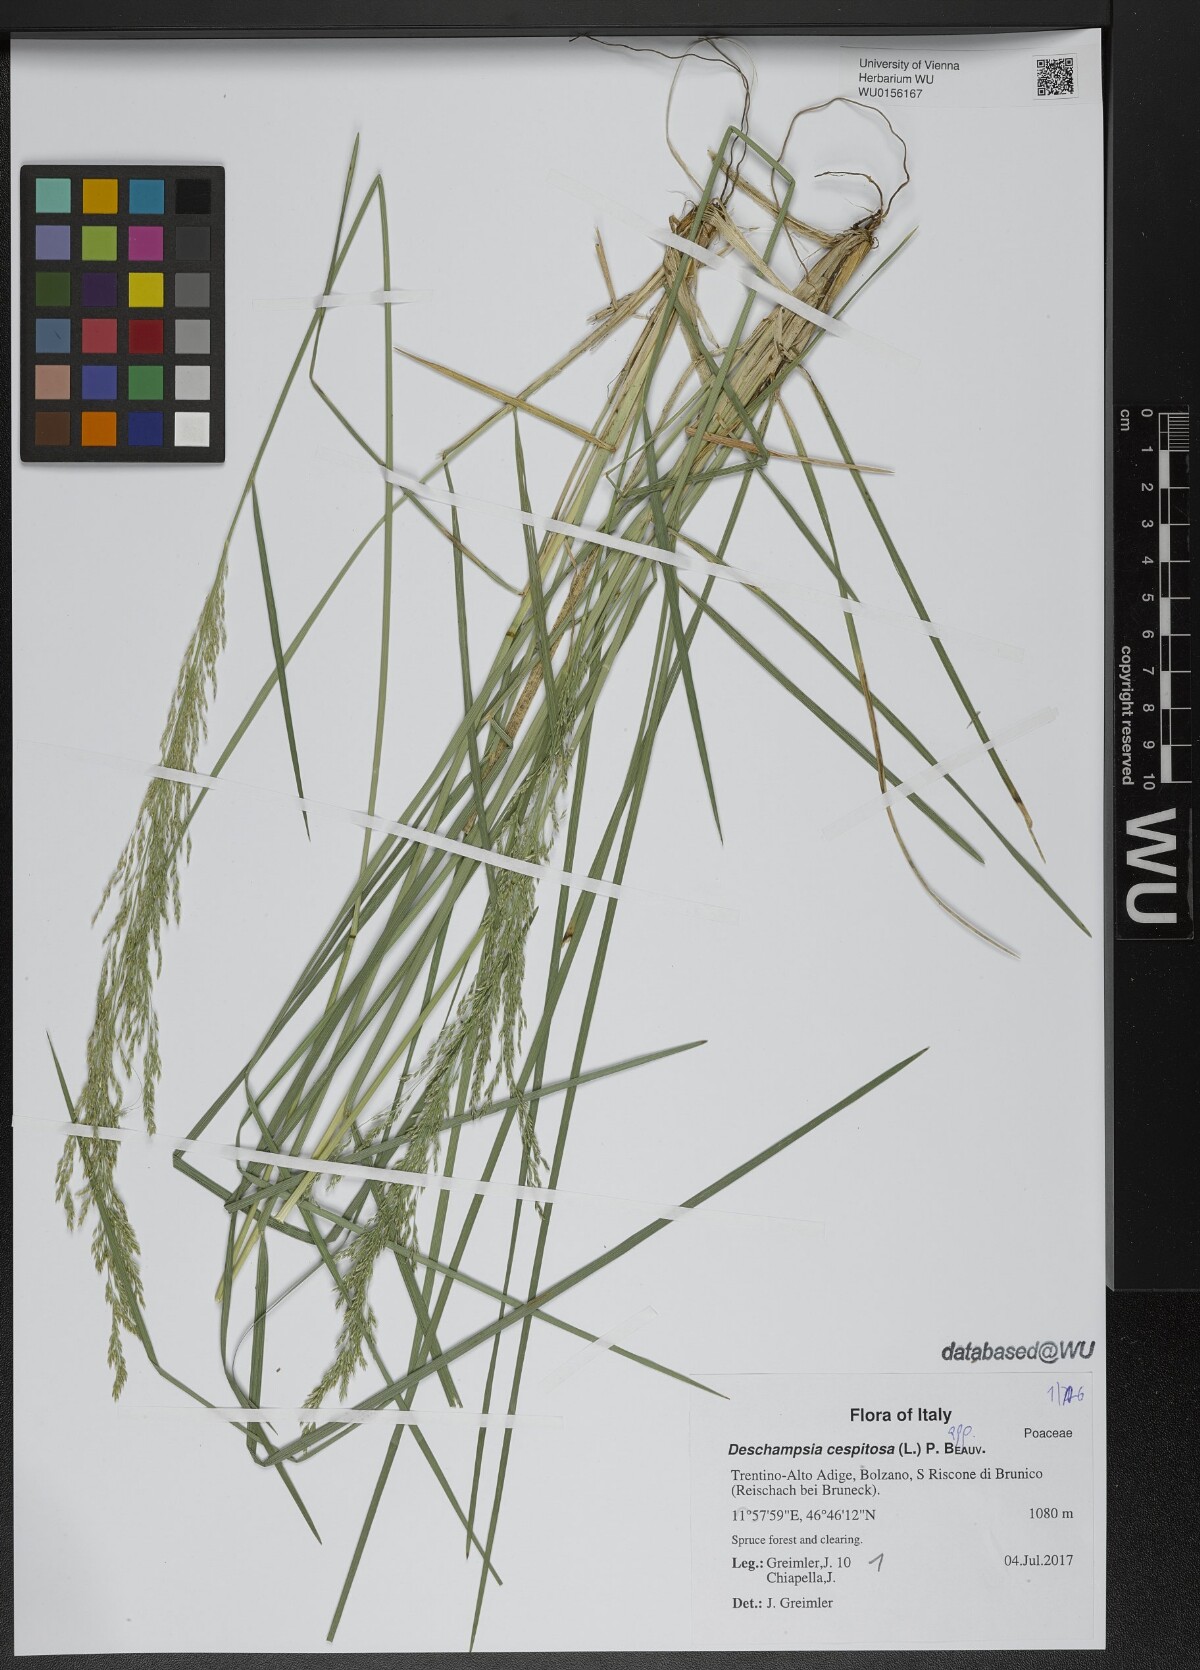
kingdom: Plantae
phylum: Tracheophyta
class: Liliopsida
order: Poales
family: Poaceae
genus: Deschampsia
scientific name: Deschampsia cespitosa
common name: Tufted hair-grass
